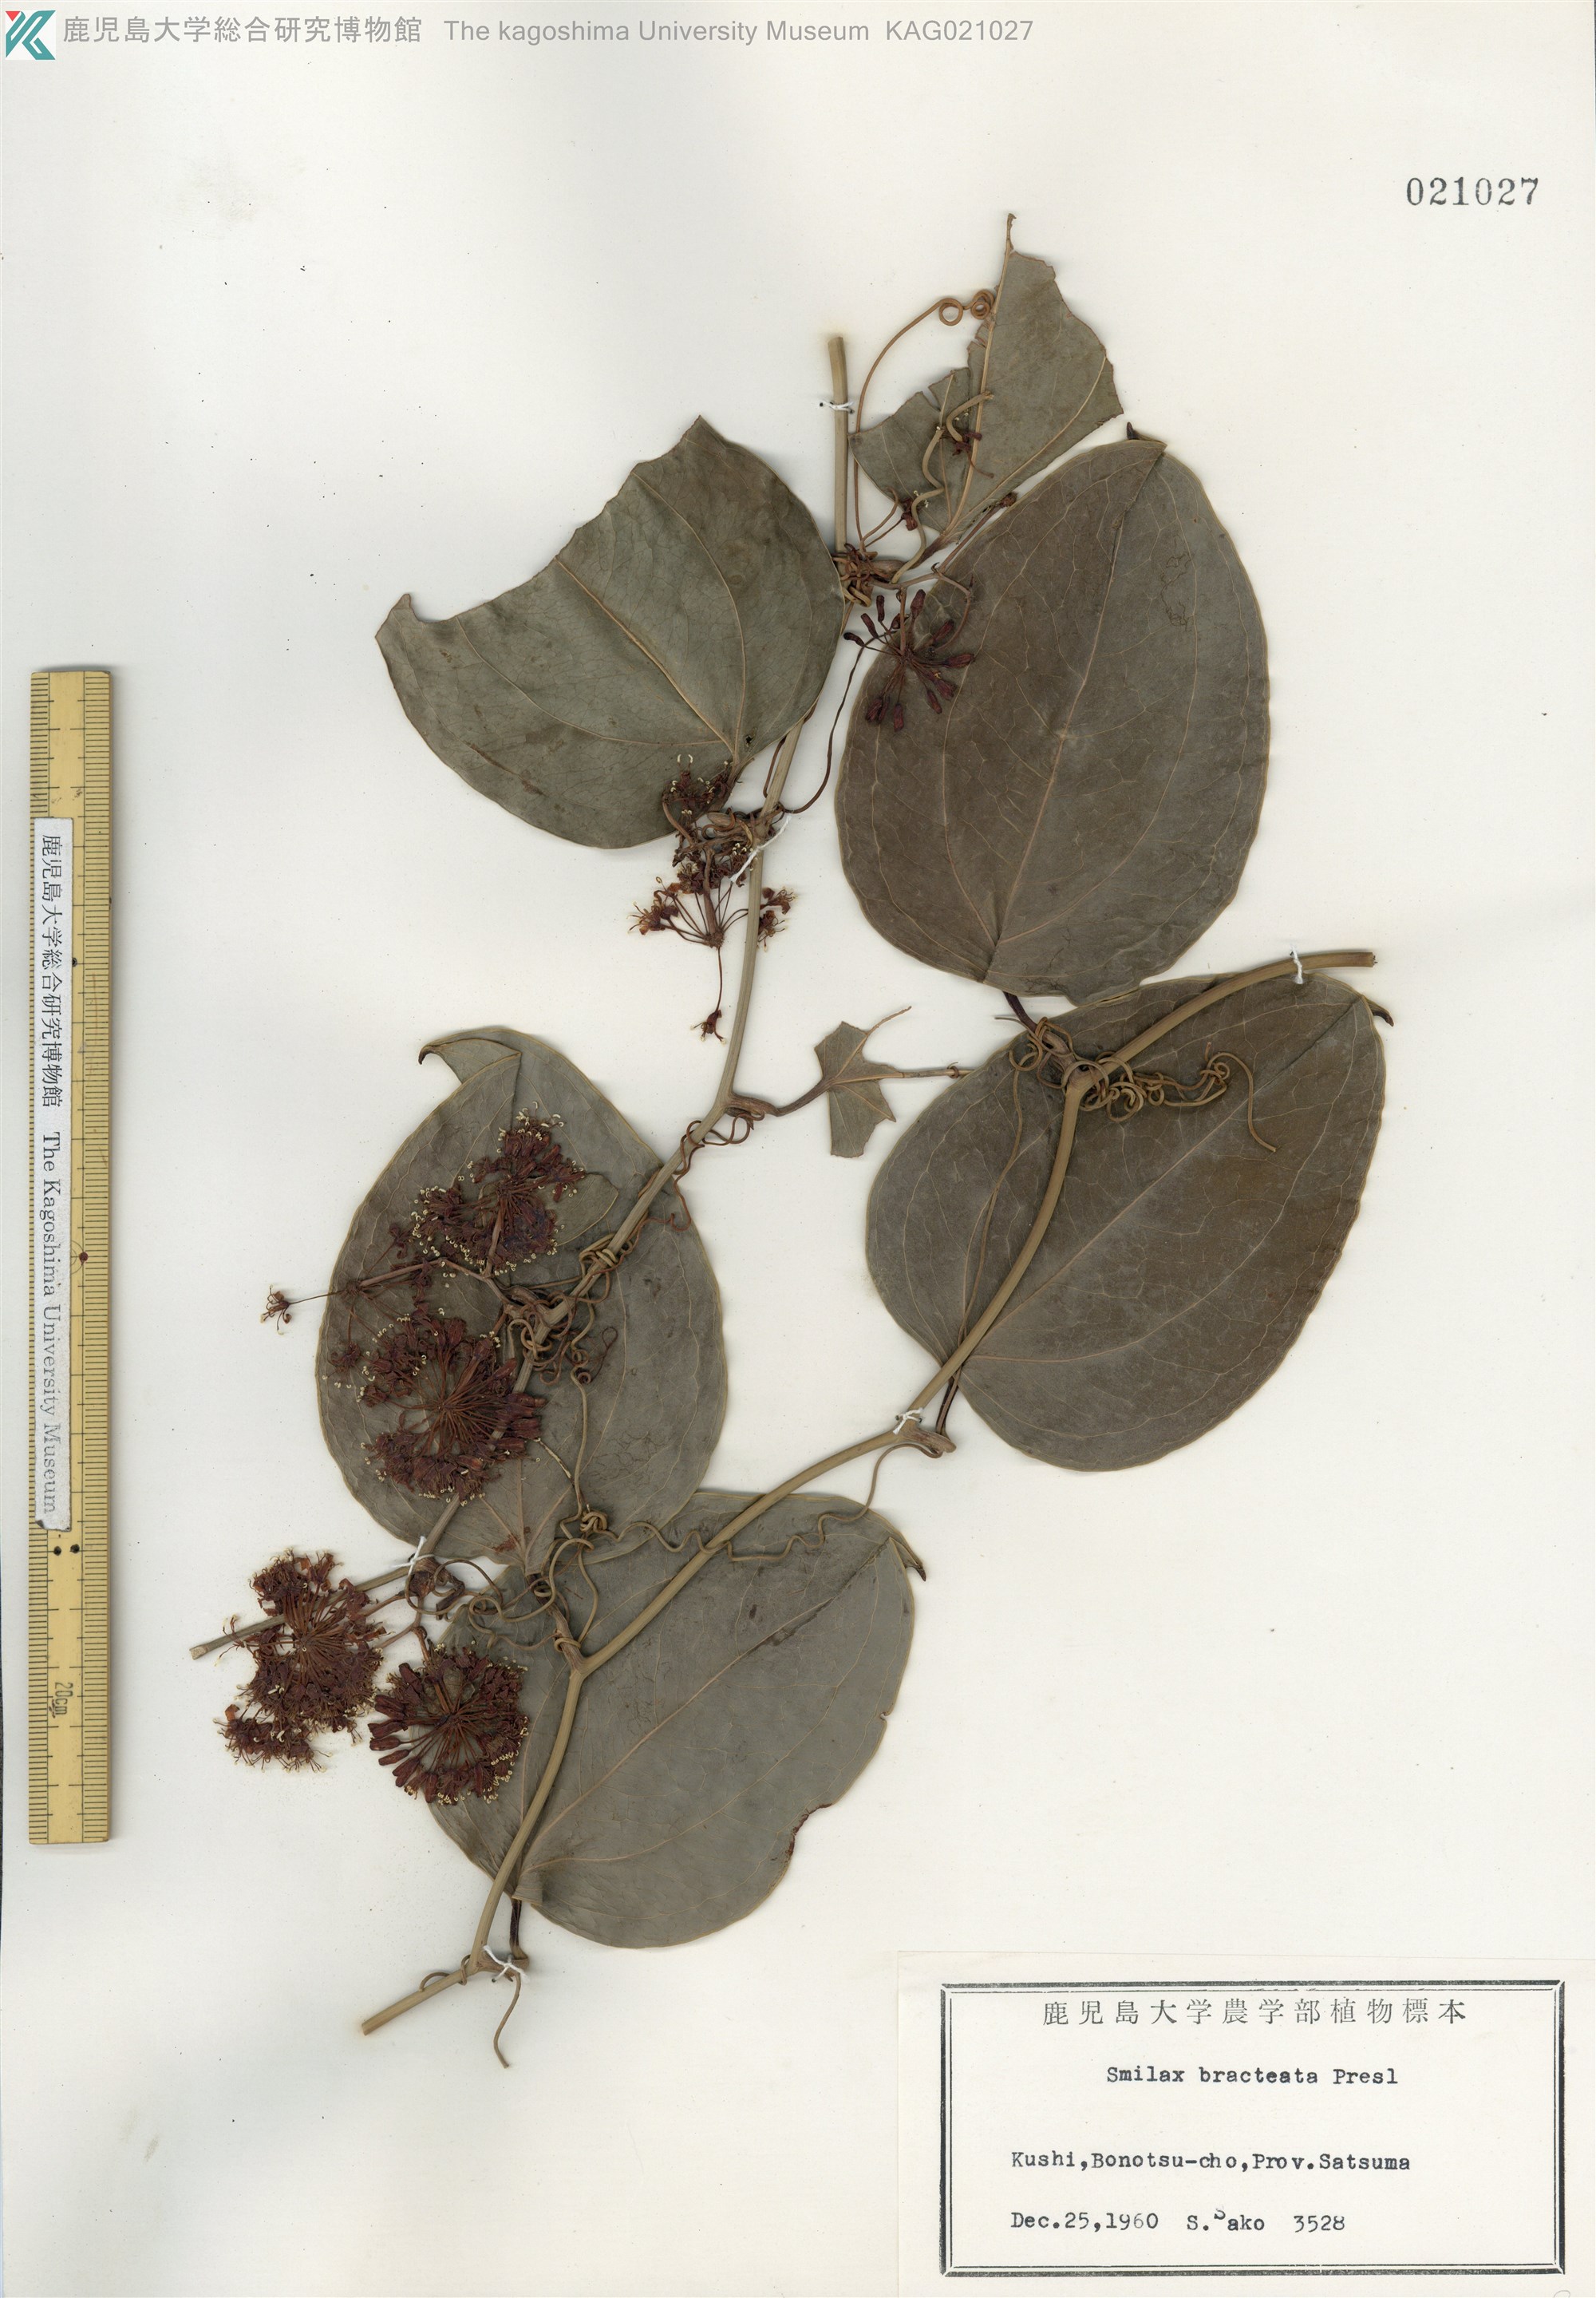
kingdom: Plantae
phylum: Tracheophyta
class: Liliopsida
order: Liliales
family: Smilacaceae
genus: Smilax
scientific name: Smilax bracteata
